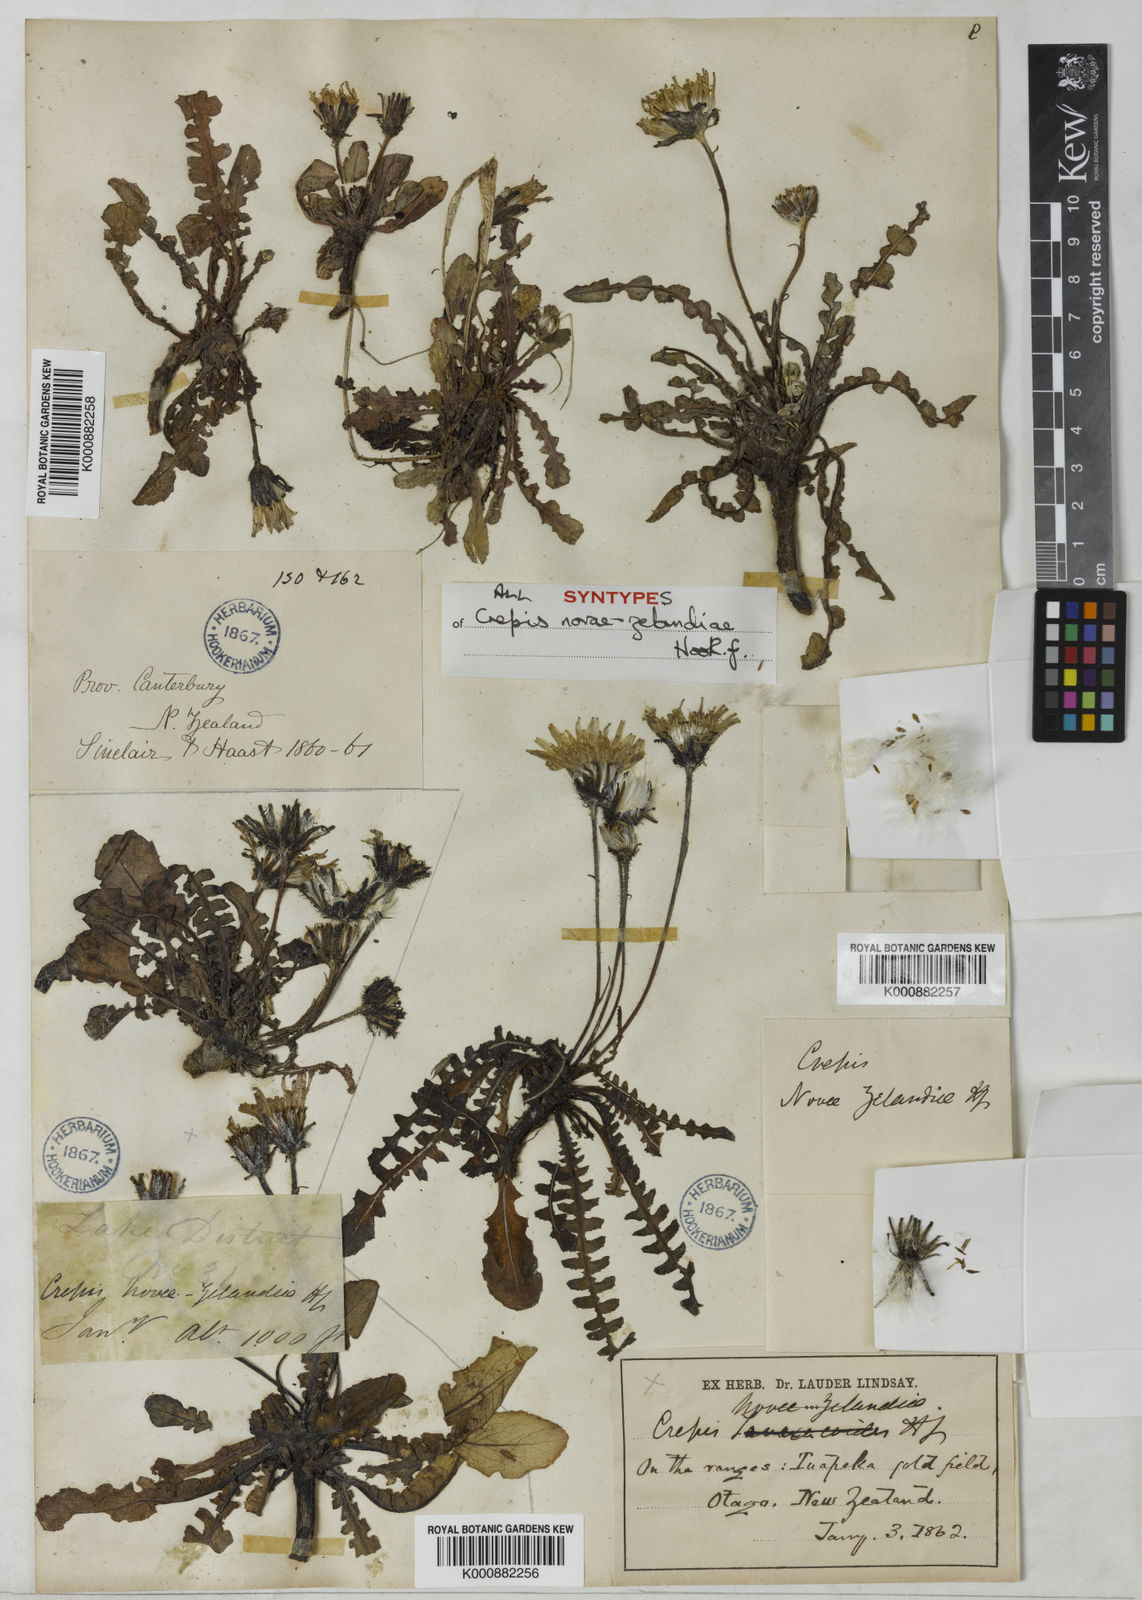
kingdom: Plantae
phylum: Tracheophyta
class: Magnoliopsida
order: Asterales
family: Asteraceae
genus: Sonchus
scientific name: Sonchus novae-zelandiae
